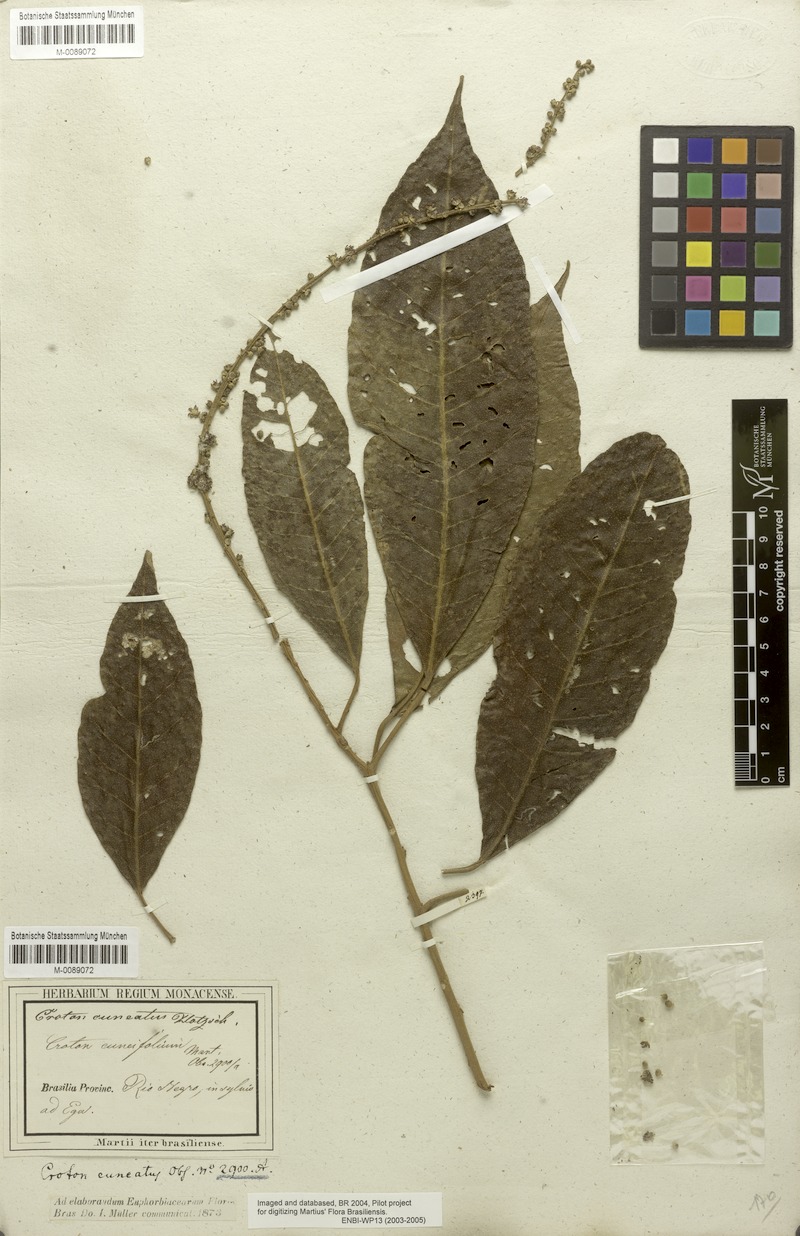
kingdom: Plantae
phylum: Tracheophyta
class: Magnoliopsida
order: Malpighiales
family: Euphorbiaceae
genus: Croton
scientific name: Croton cuneatus
